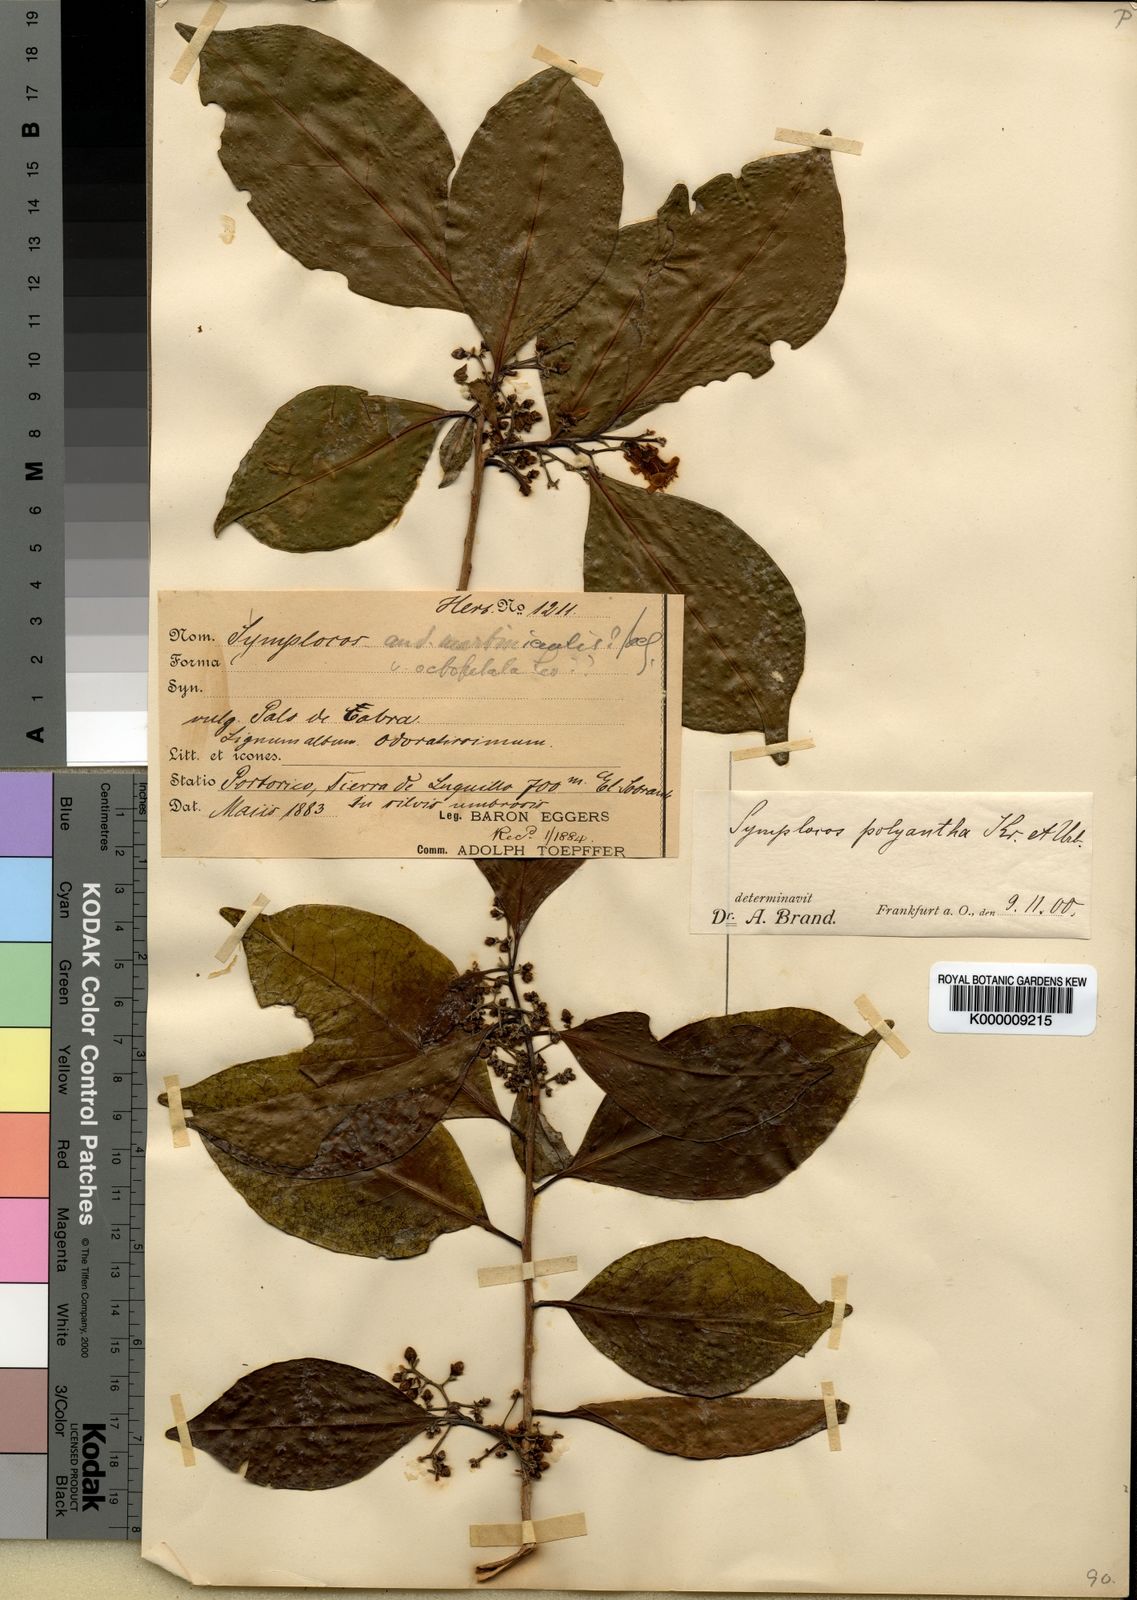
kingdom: Plantae
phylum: Tracheophyta
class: Magnoliopsida
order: Ericales
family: Symplocaceae
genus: Symplocos
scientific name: Symplocos latifolia
